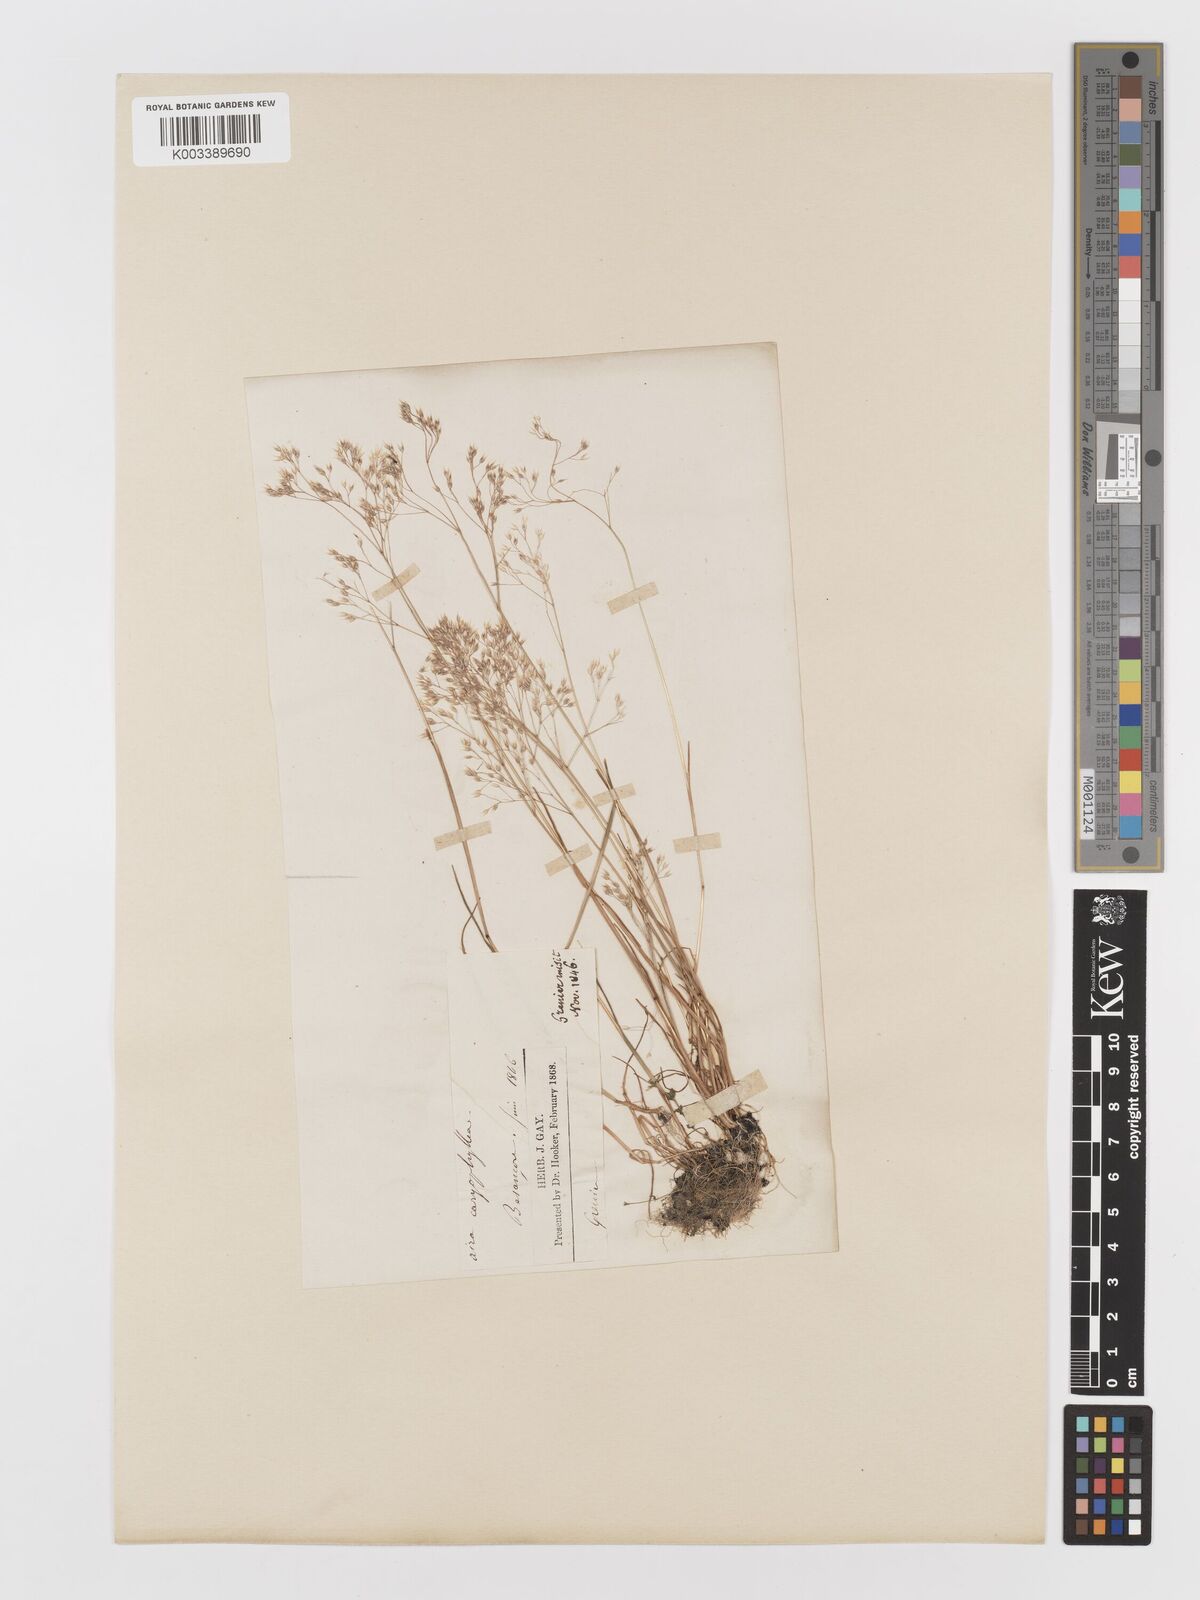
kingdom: Plantae
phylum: Tracheophyta
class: Liliopsida
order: Poales
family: Poaceae
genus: Aira
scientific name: Aira caryophyllea
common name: Silver hairgrass
